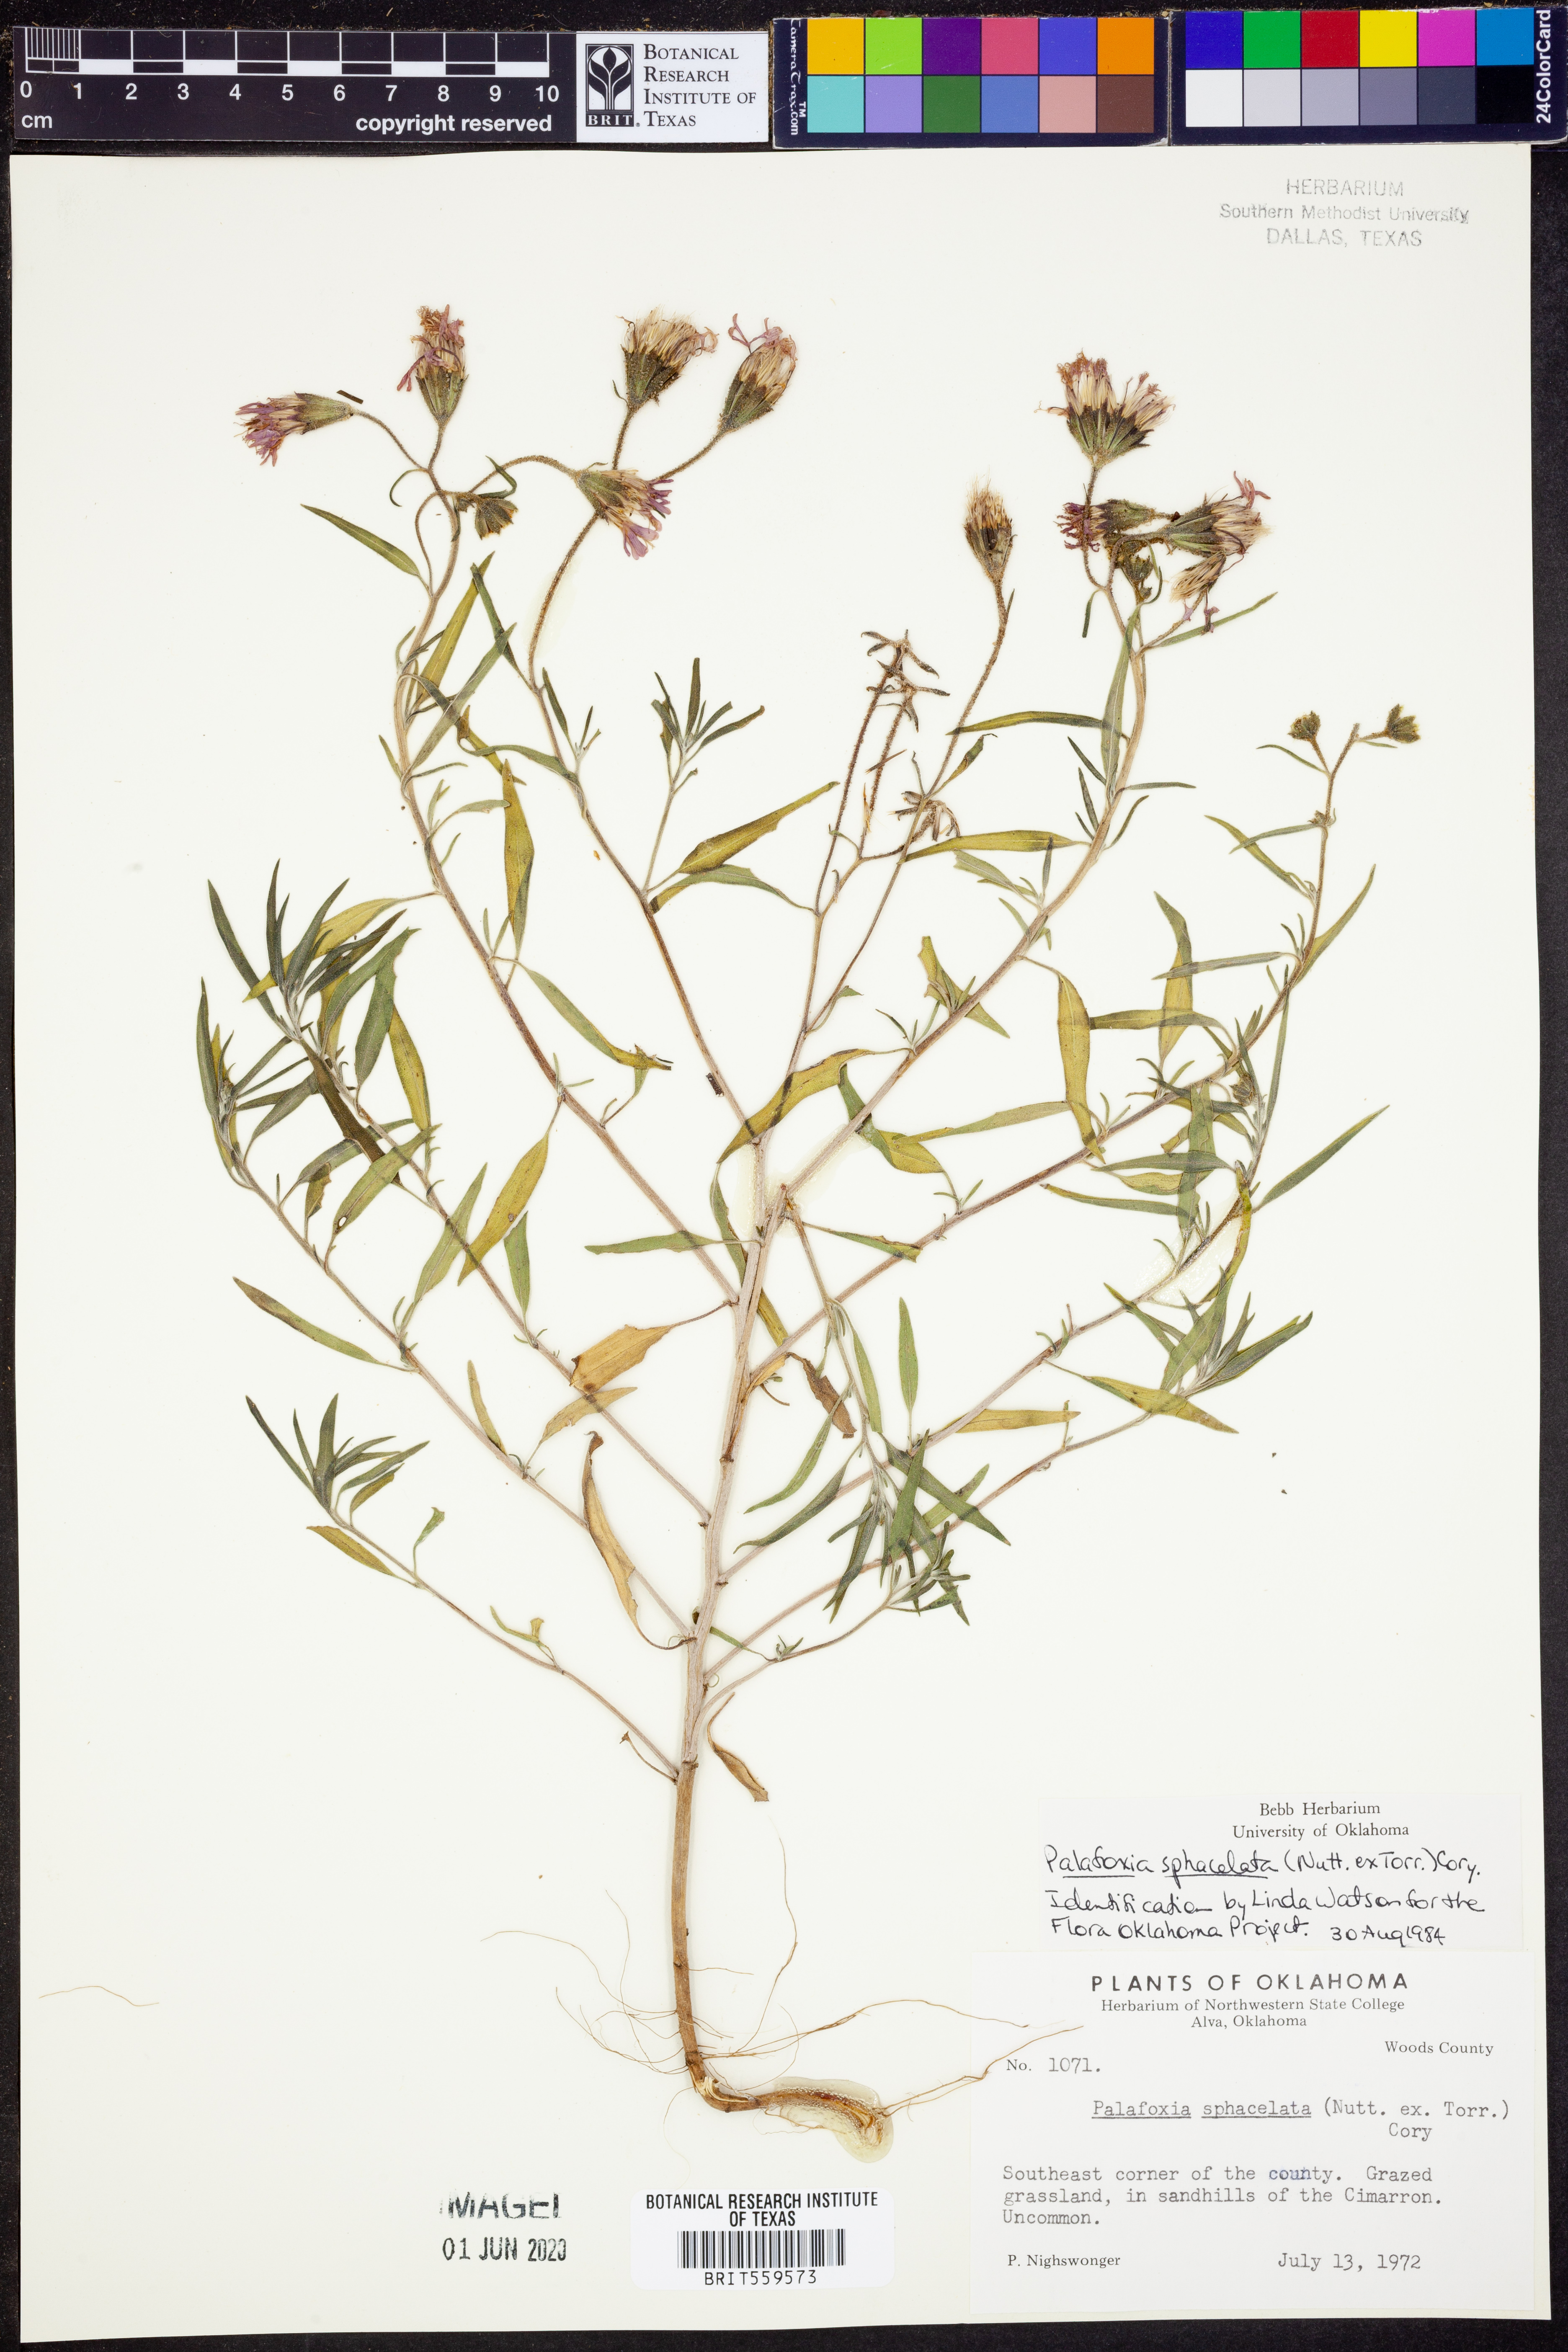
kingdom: Plantae
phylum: Tracheophyta
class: Magnoliopsida
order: Asterales
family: Asteraceae
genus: Palafoxia
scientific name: Palafoxia sphacelata
